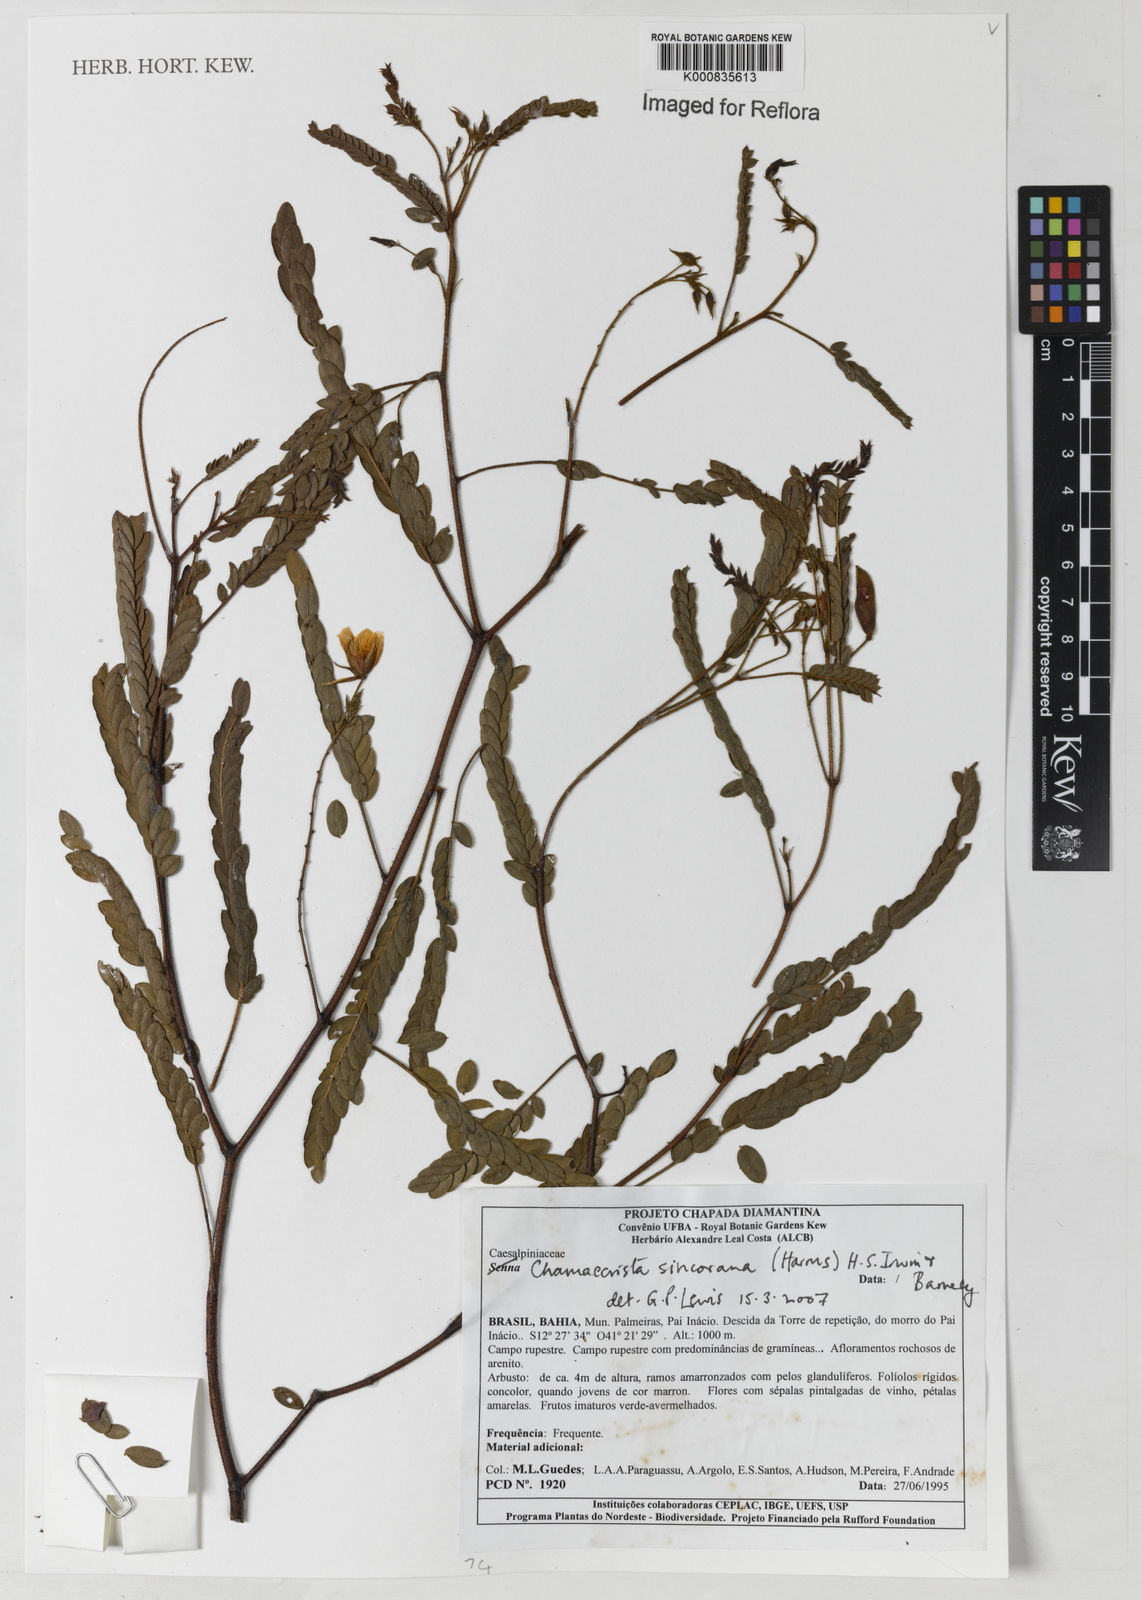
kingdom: Plantae
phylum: Tracheophyta
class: Magnoliopsida
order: Fabales
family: Fabaceae
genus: Chamaecrista
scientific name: Chamaecrista sincorana
